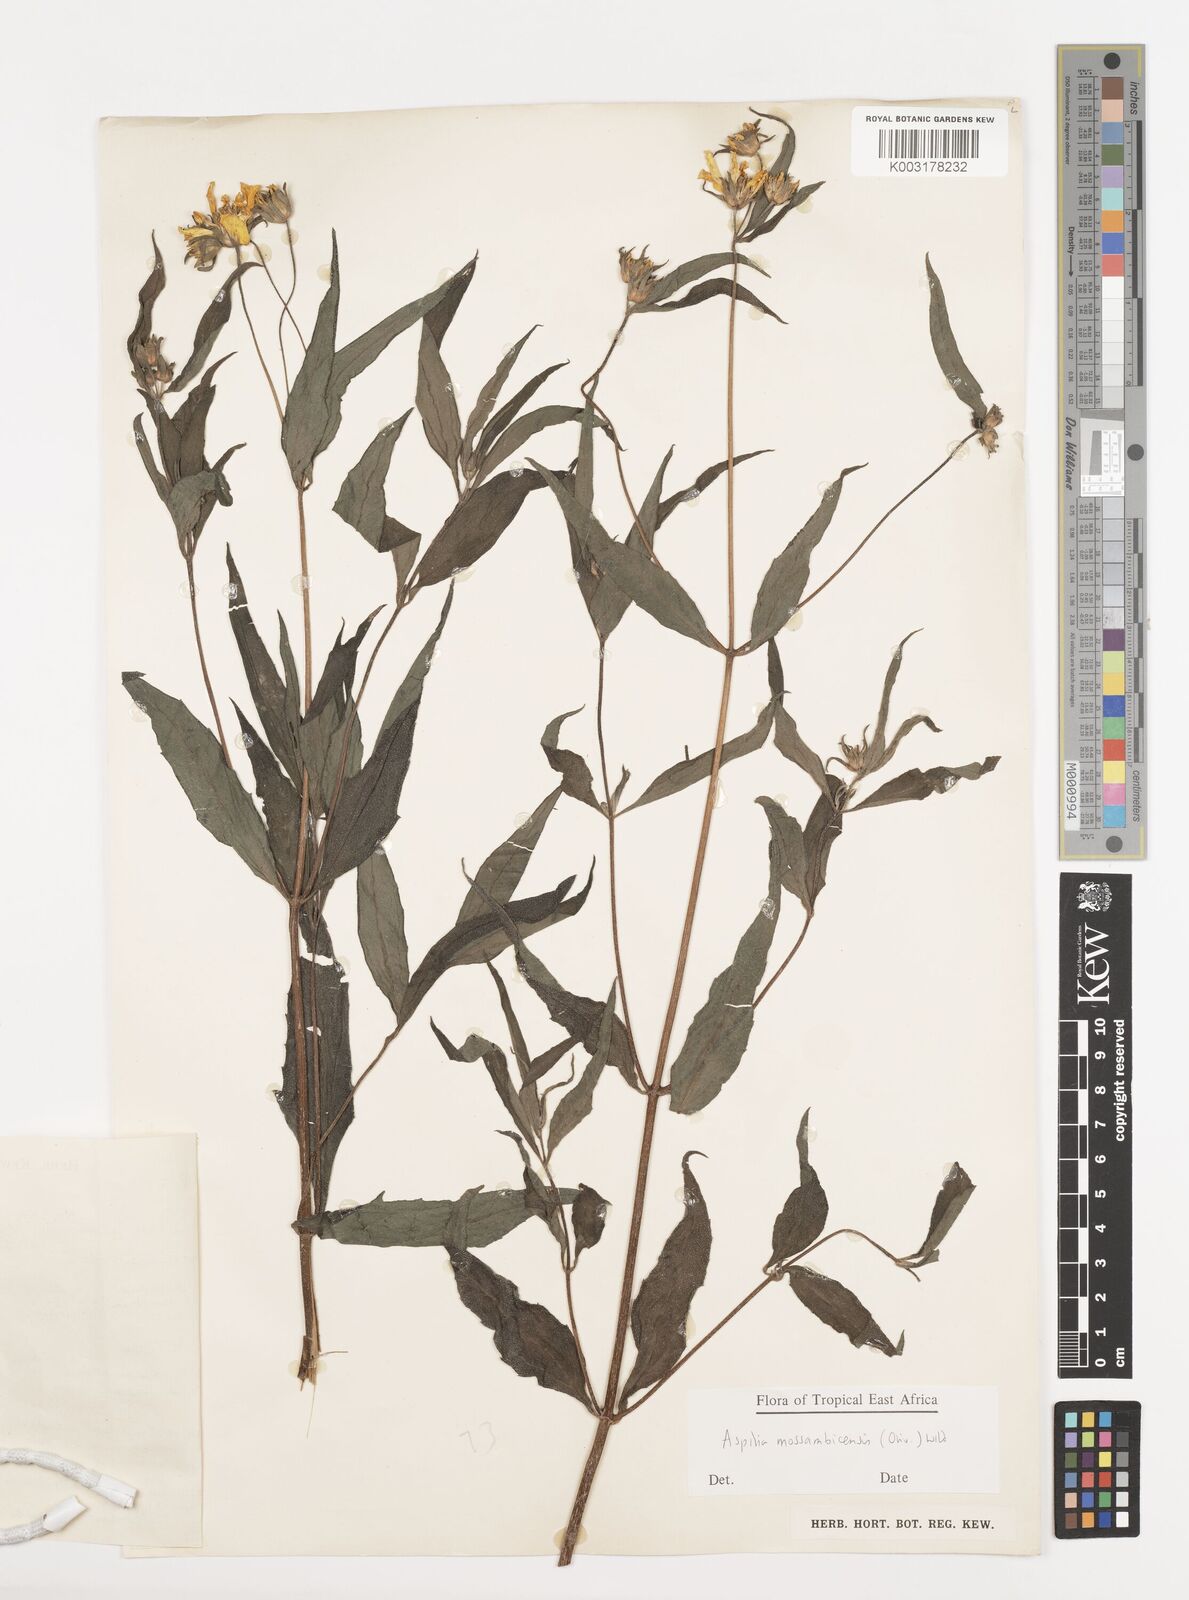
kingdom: Plantae
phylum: Tracheophyta
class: Magnoliopsida
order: Asterales
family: Asteraceae
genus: Aspilia
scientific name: Aspilia mossambicensis
